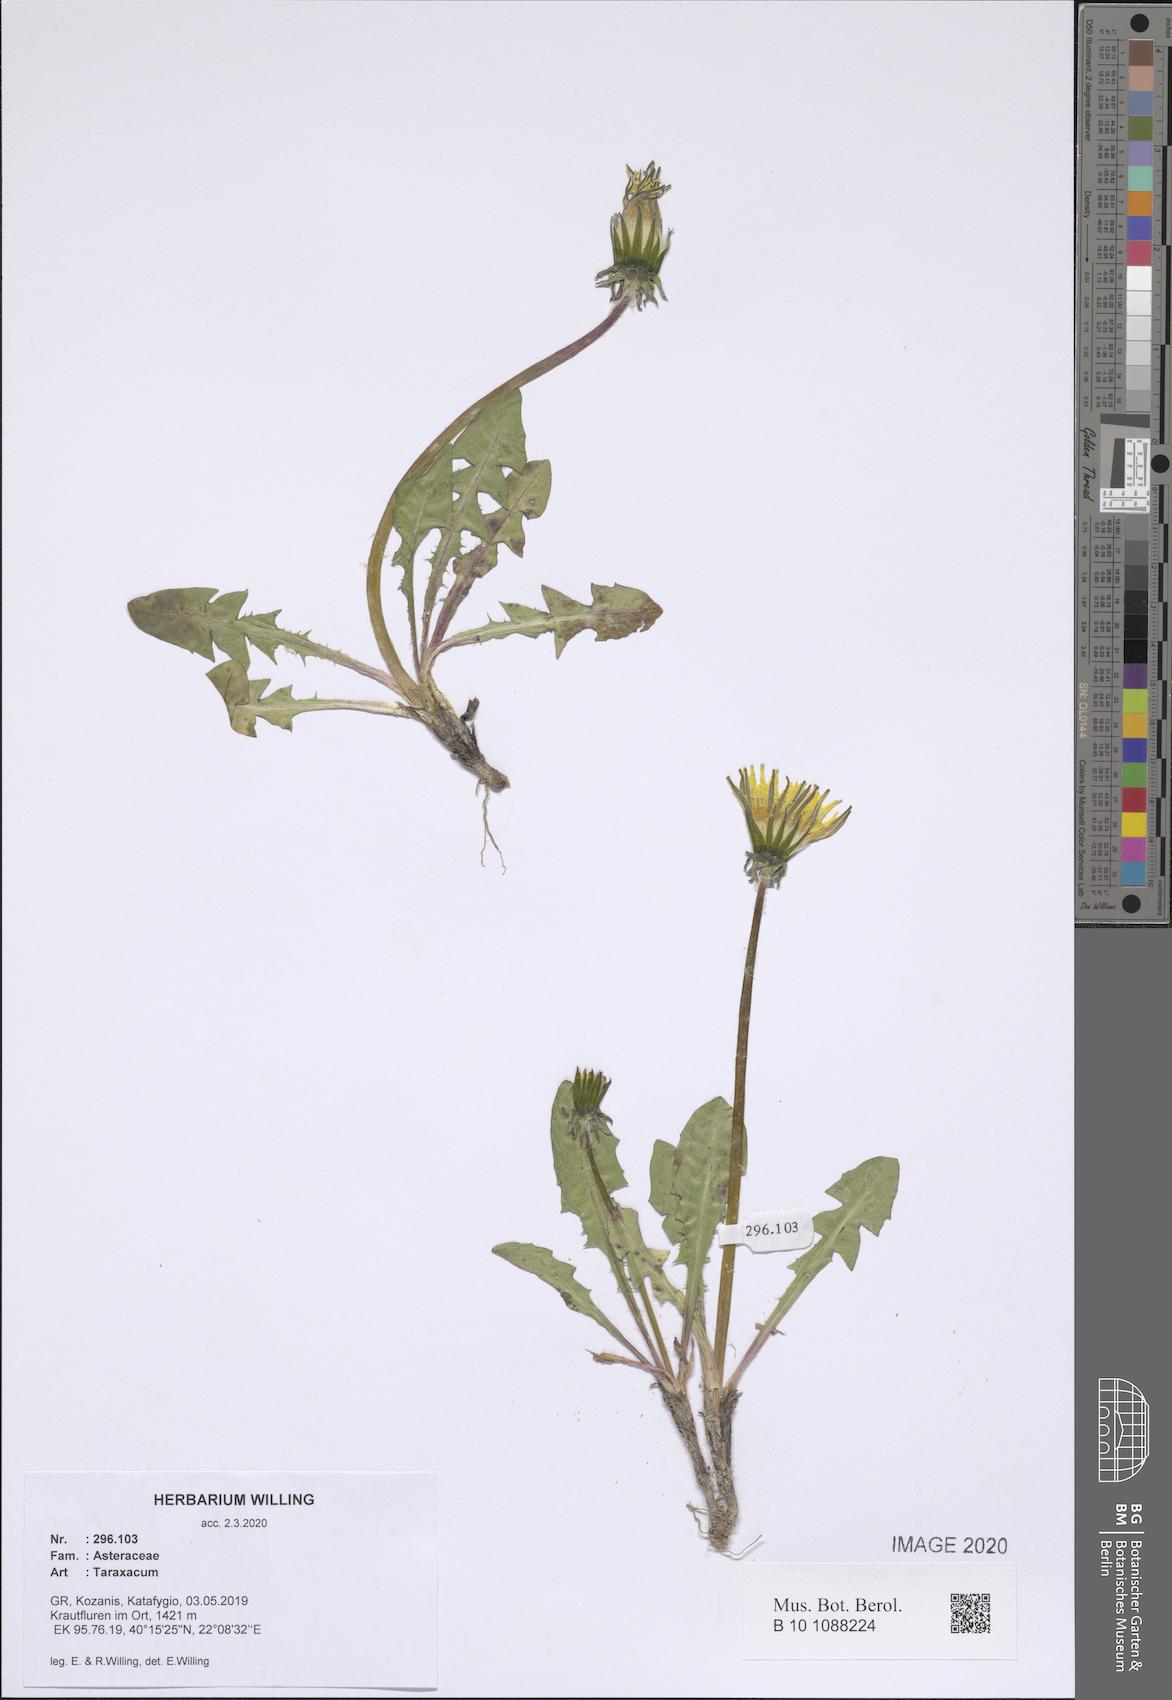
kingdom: Plantae
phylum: Tracheophyta
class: Magnoliopsida
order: Asterales
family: Asteraceae
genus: Taraxacum
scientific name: Taraxacum
